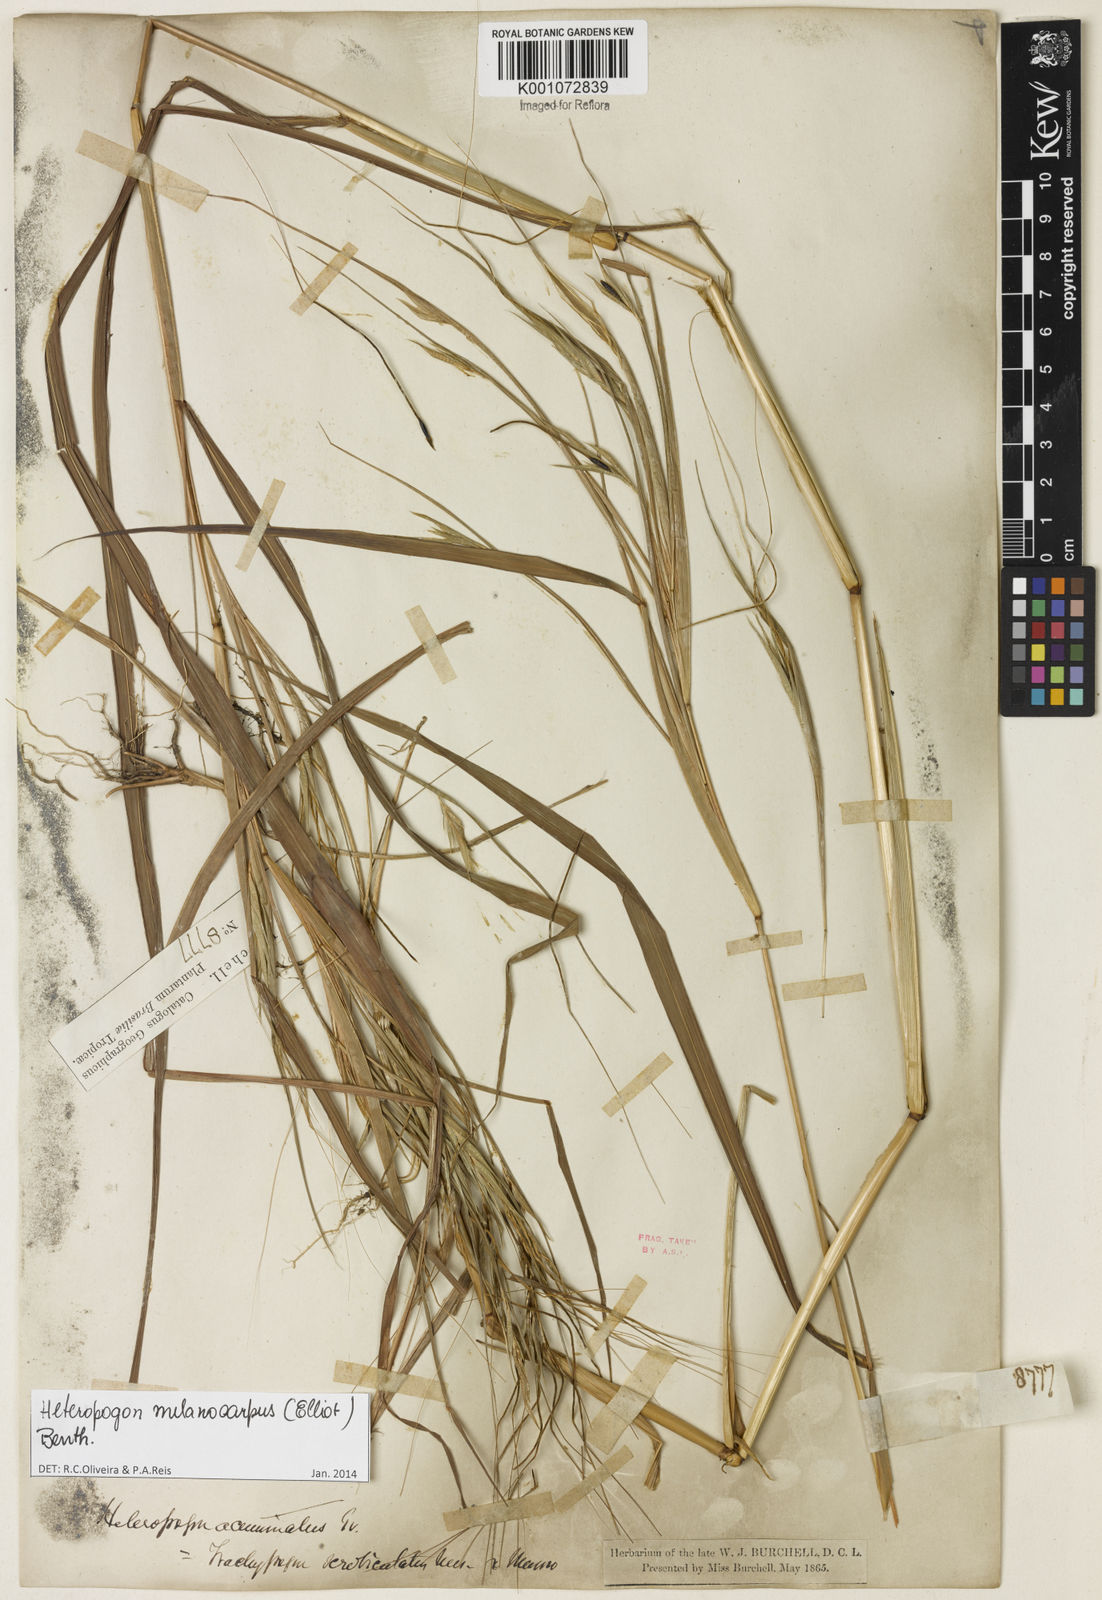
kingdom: Plantae
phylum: Tracheophyta
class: Liliopsida
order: Poales
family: Poaceae
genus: Heteropogon
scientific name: Heteropogon melanocarpus
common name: Sweet tanglehead
